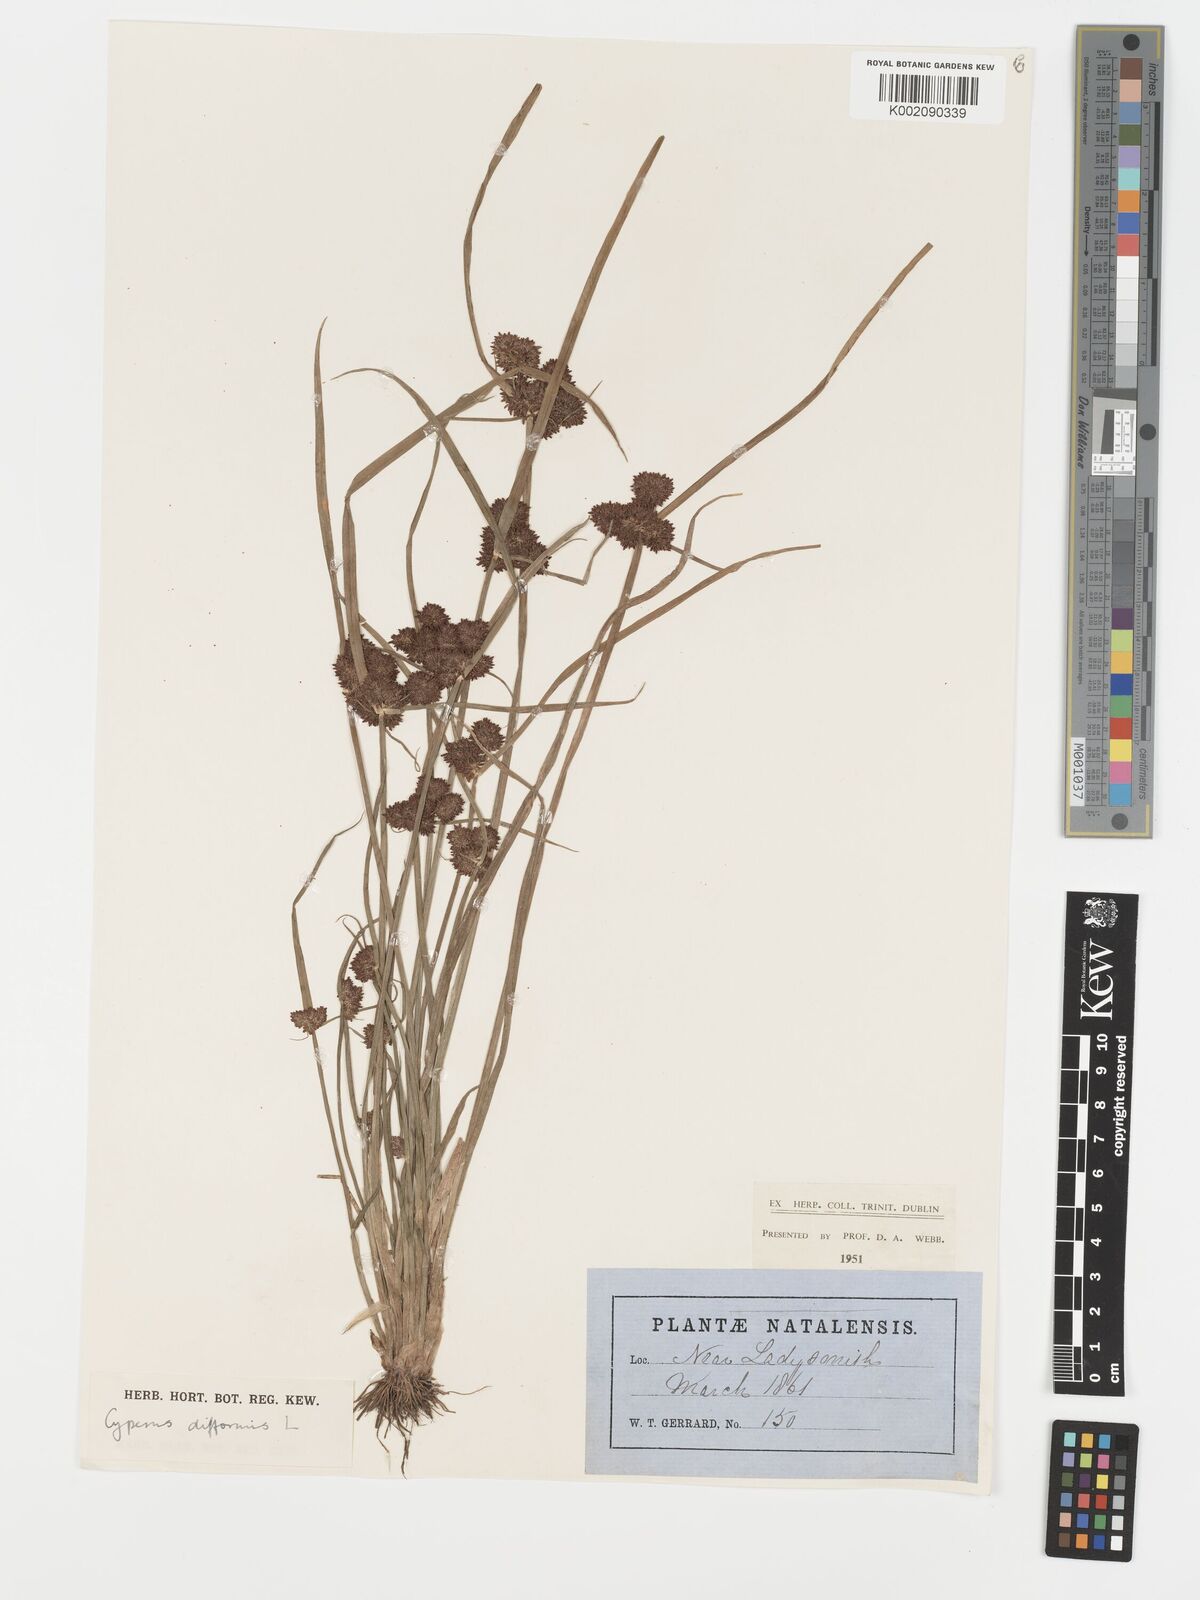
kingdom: Plantae
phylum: Tracheophyta
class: Liliopsida
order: Poales
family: Cyperaceae
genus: Cyperus
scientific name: Cyperus difformis
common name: Variable flatsedge
